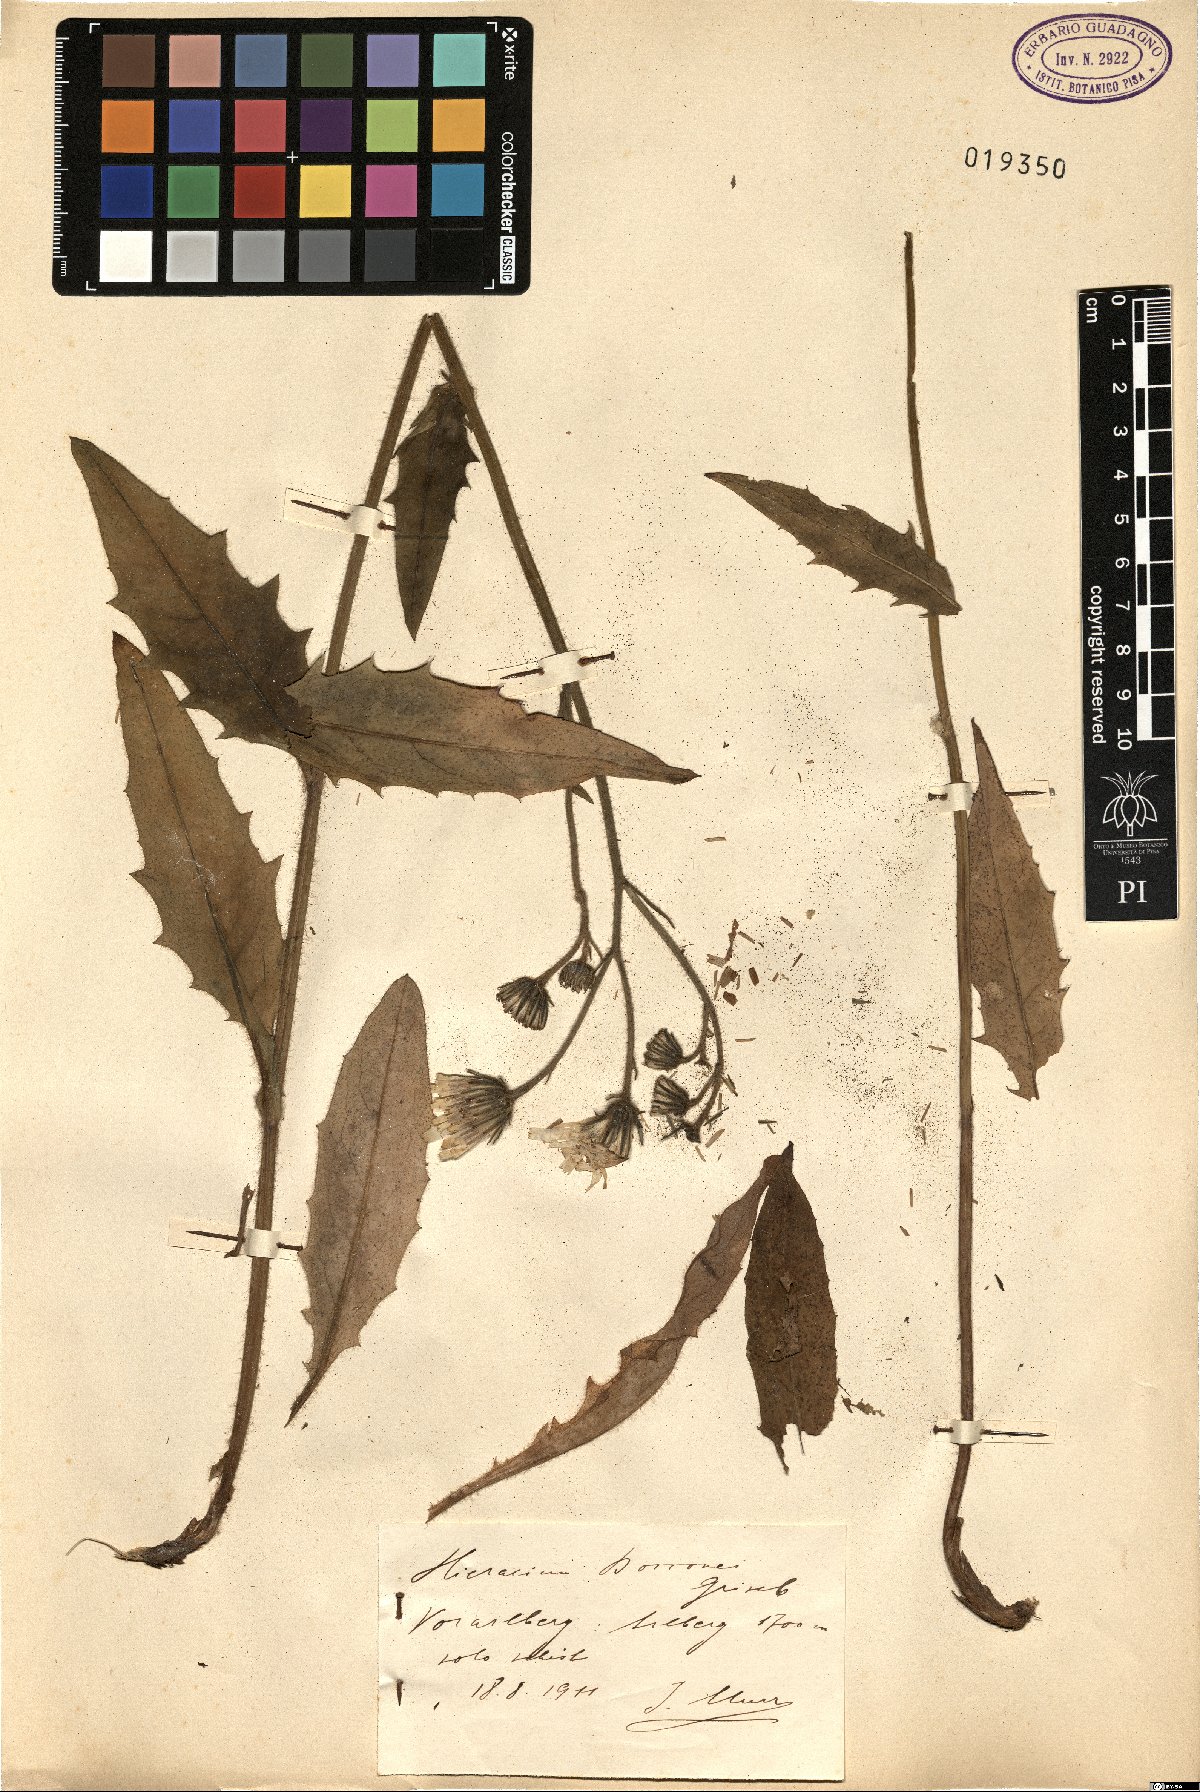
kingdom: Plantae
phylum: Tracheophyta
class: Magnoliopsida
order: Asterales
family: Asteraceae
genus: Hieracium
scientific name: Hieracium bocconei
